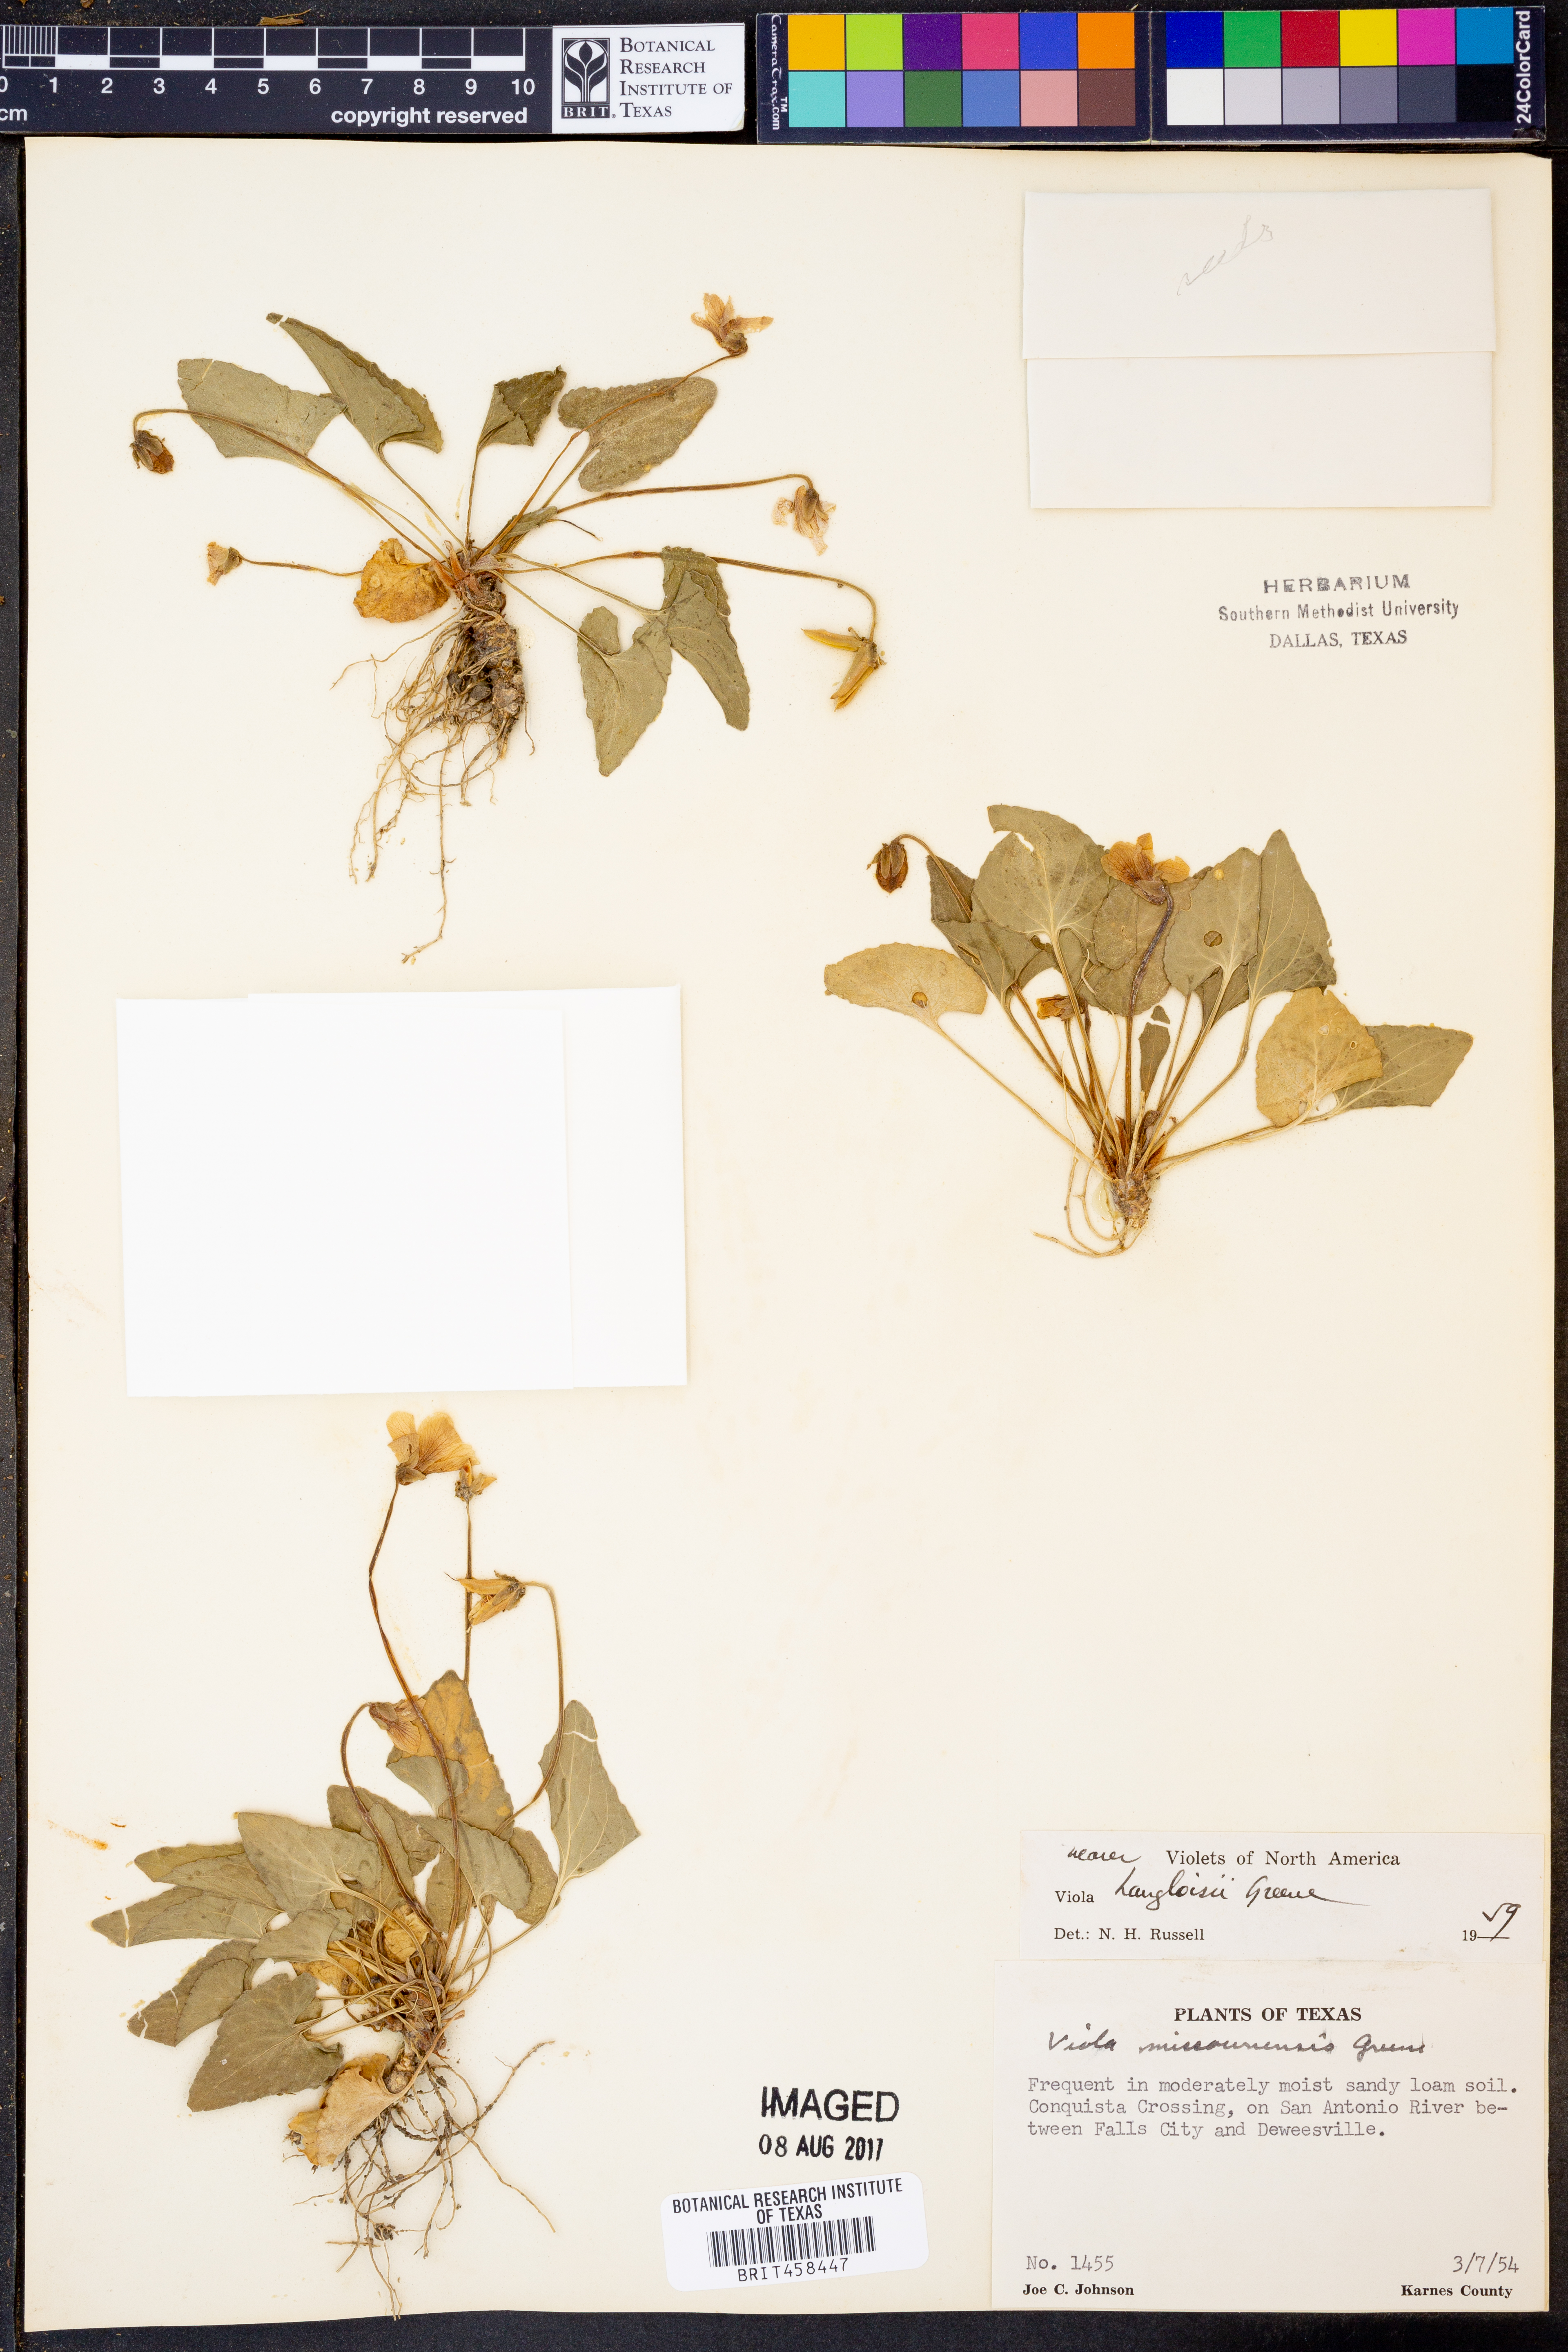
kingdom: Plantae
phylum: Tracheophyta
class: Magnoliopsida
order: Malpighiales
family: Violaceae
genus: Viola
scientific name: Viola langloisii
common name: Langlois' violet
